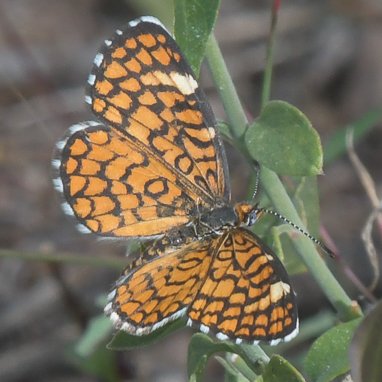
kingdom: Animalia
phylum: Arthropoda
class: Insecta
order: Lepidoptera
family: Nymphalidae
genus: Dymasia
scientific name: Dymasia dymas
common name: Tiny Checkerspot
